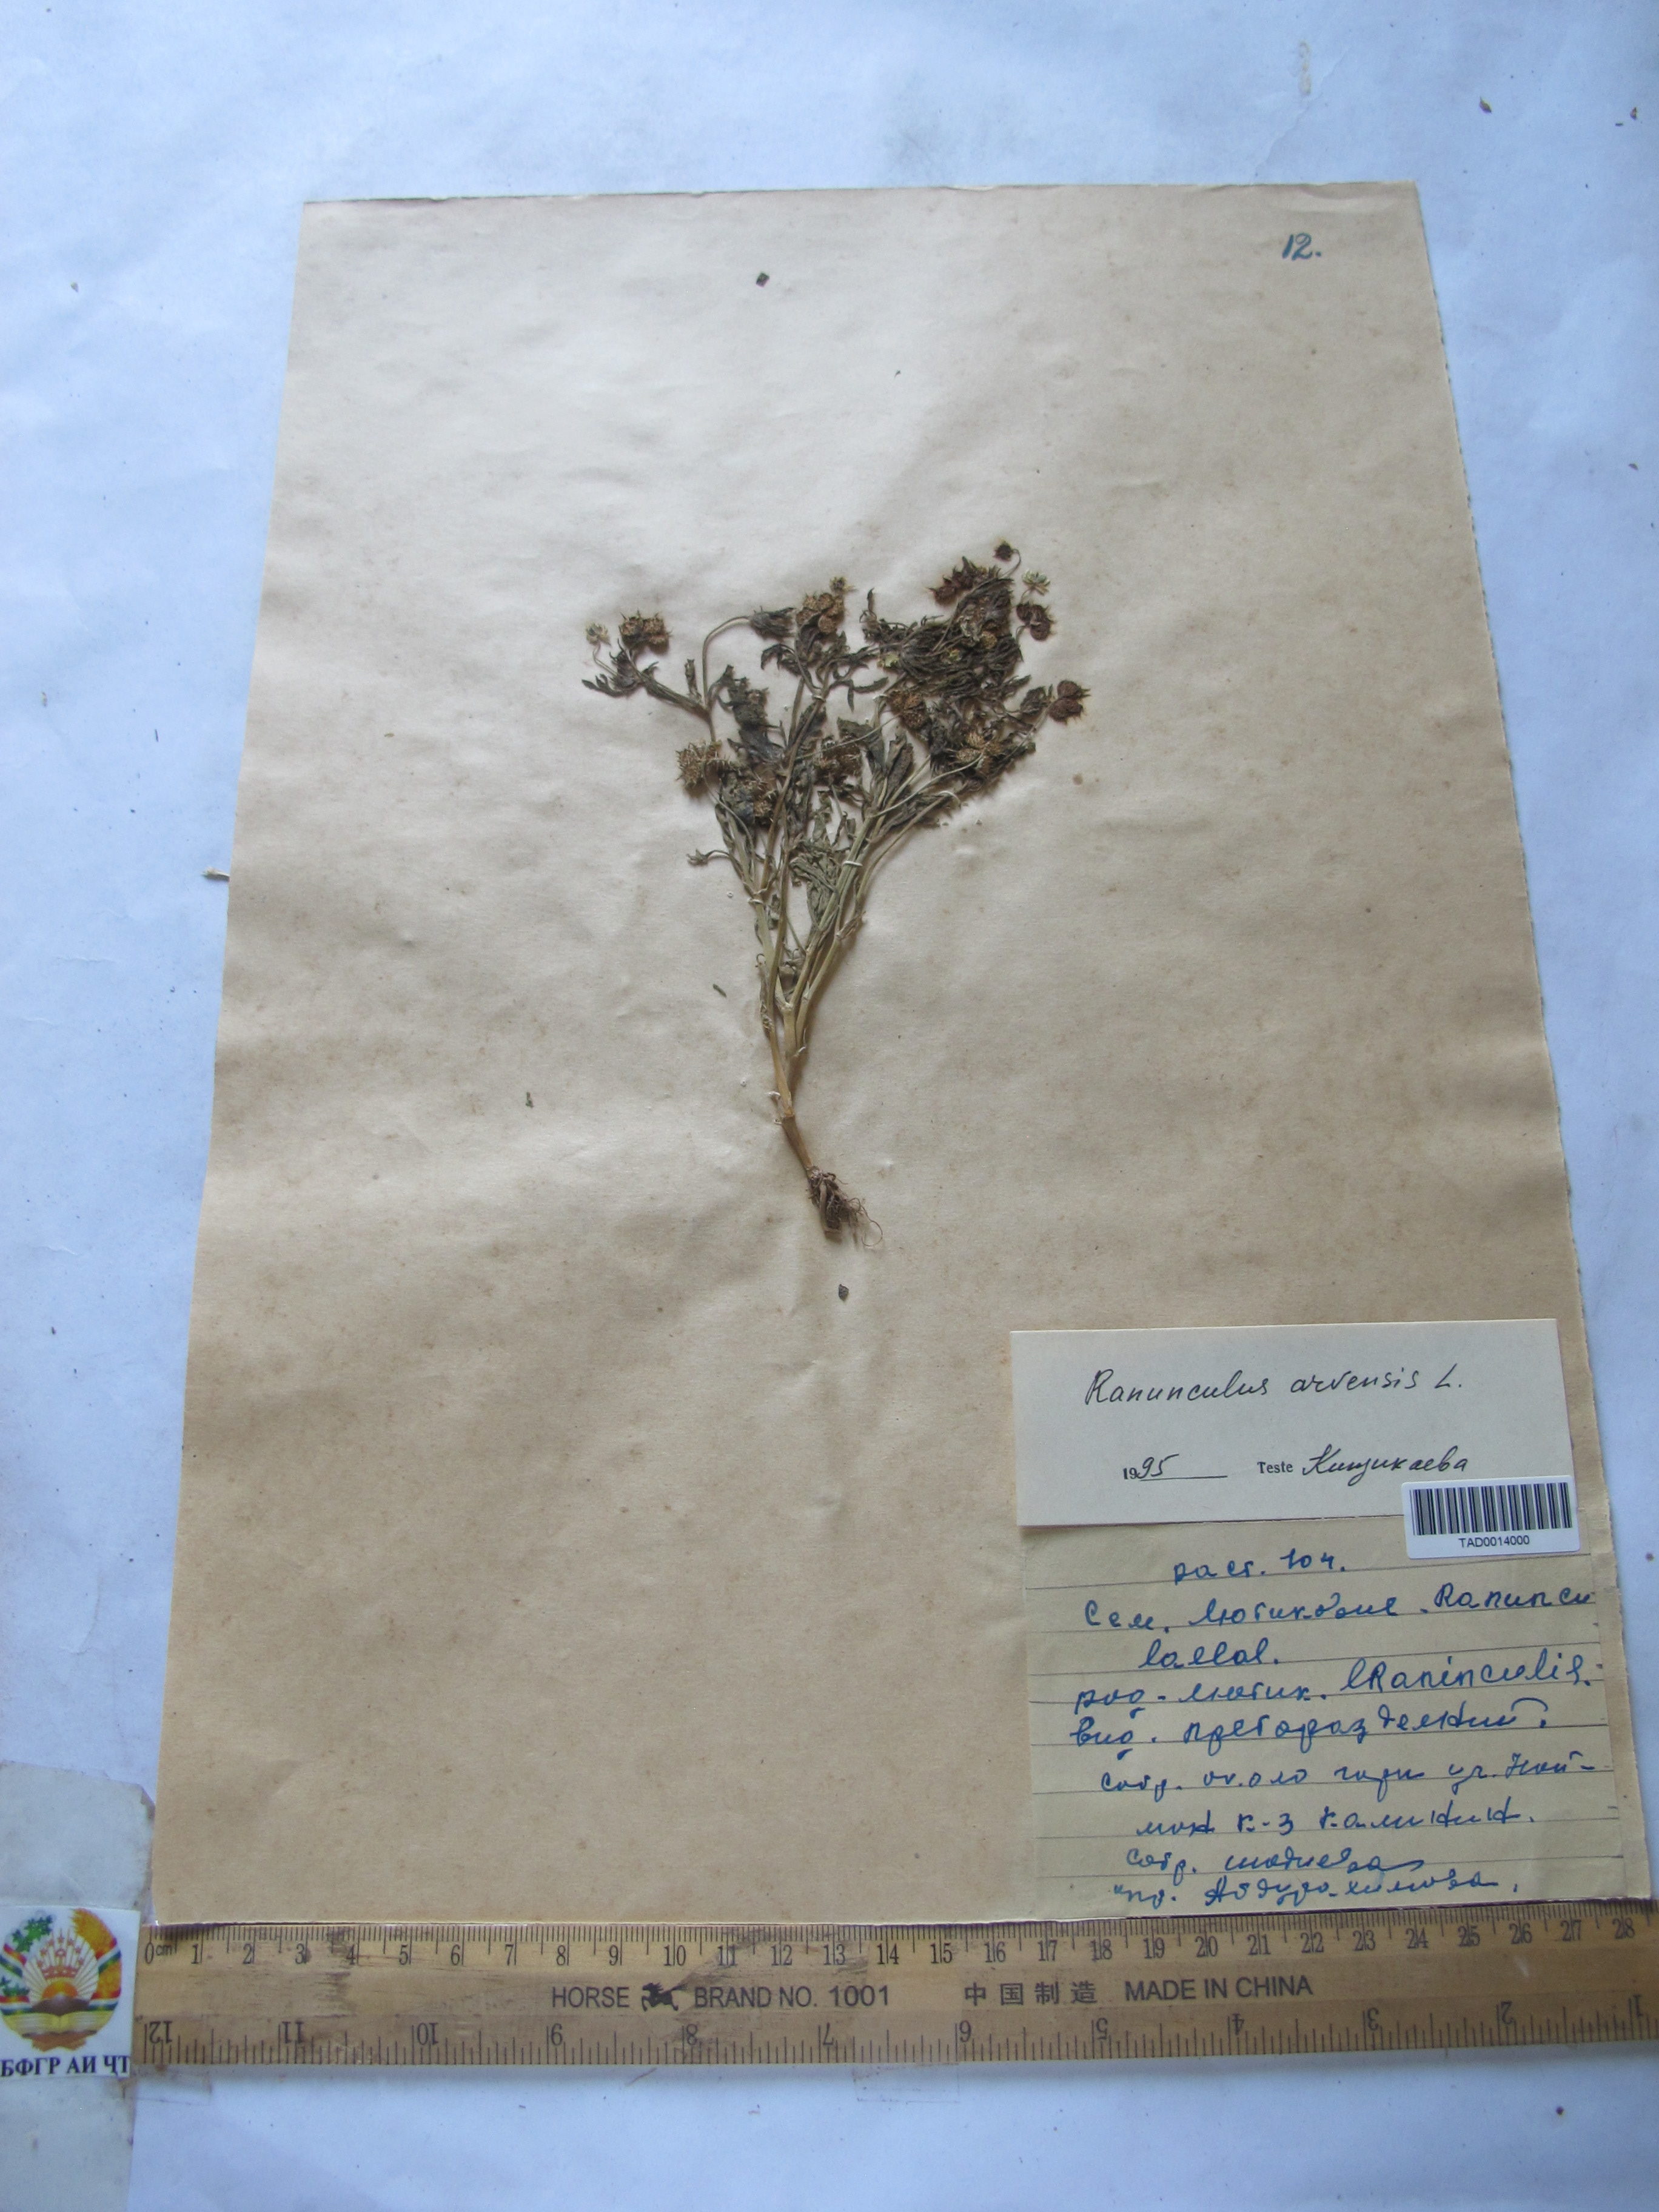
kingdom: Plantae
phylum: Tracheophyta
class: Magnoliopsida
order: Ranunculales
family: Ranunculaceae
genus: Ranunculus
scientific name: Ranunculus arvensis
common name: Corn buttercup
